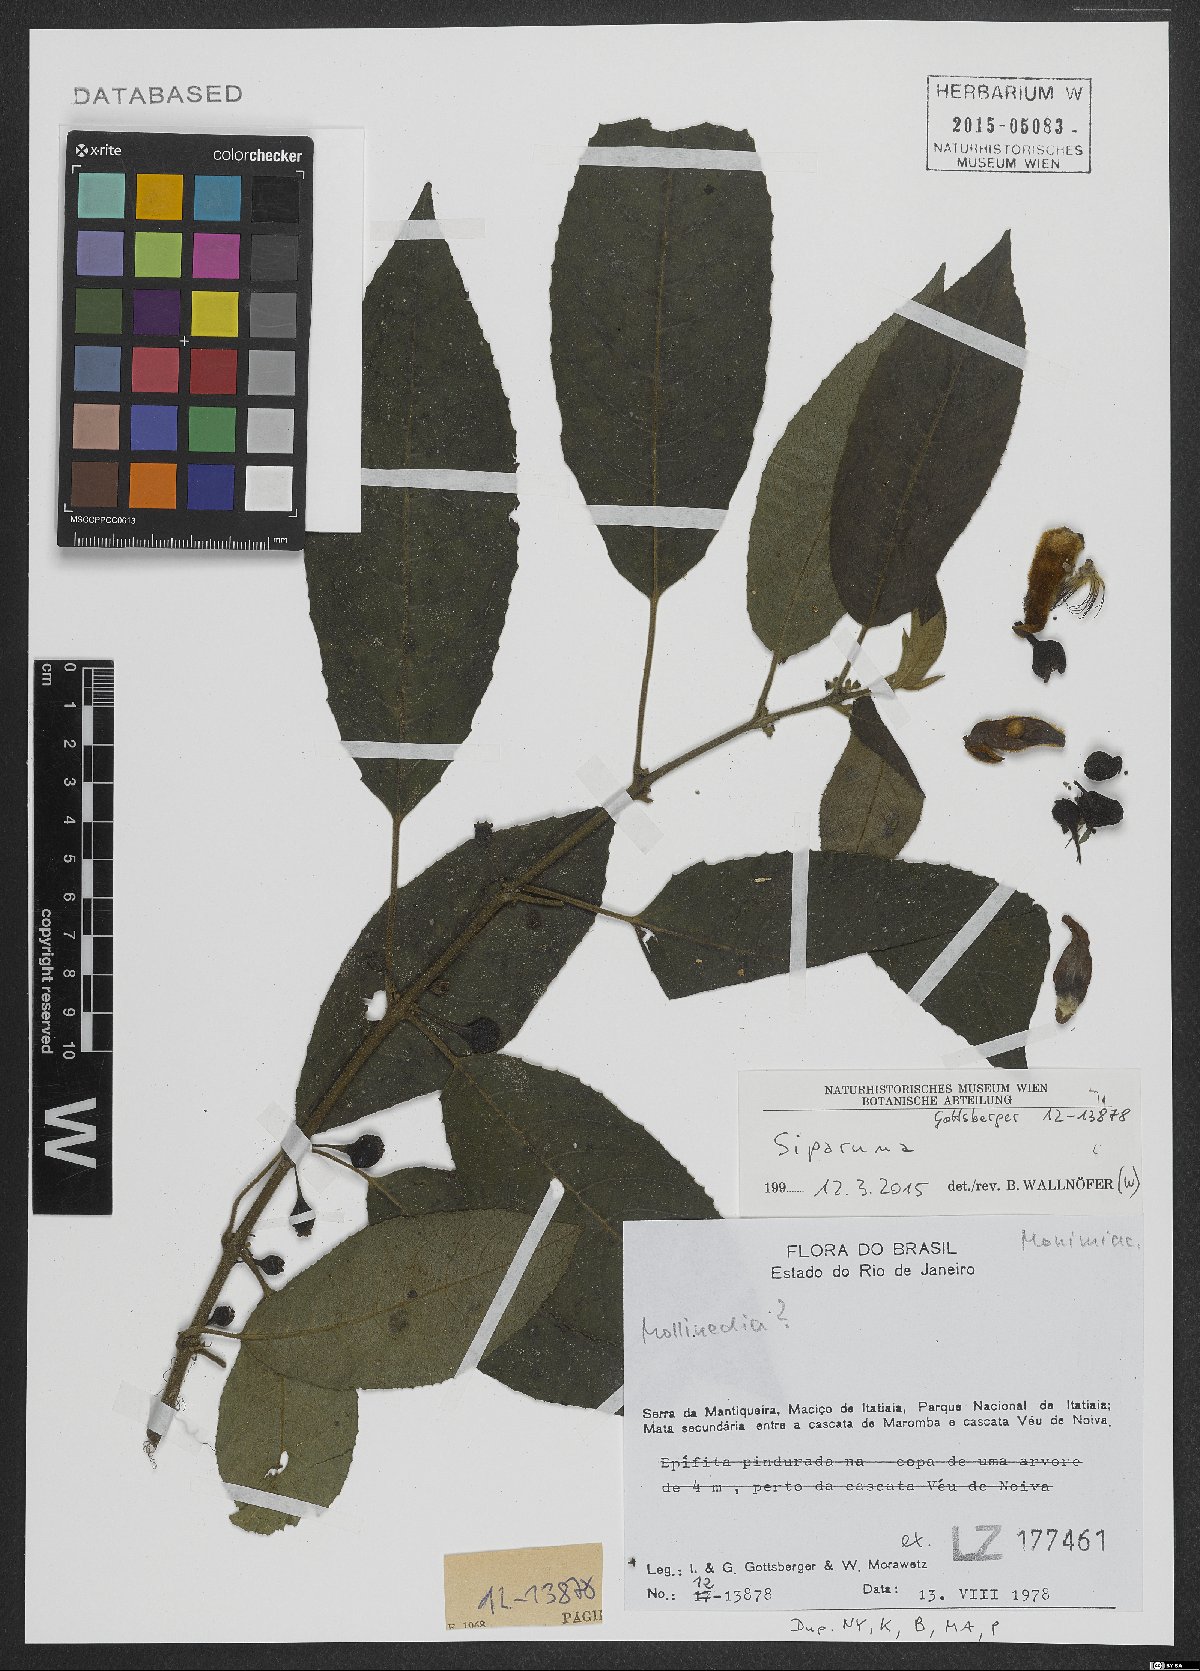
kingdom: Plantae
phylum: Tracheophyta
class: Magnoliopsida
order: Laurales
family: Siparunaceae
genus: Siparuna
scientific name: Siparuna
